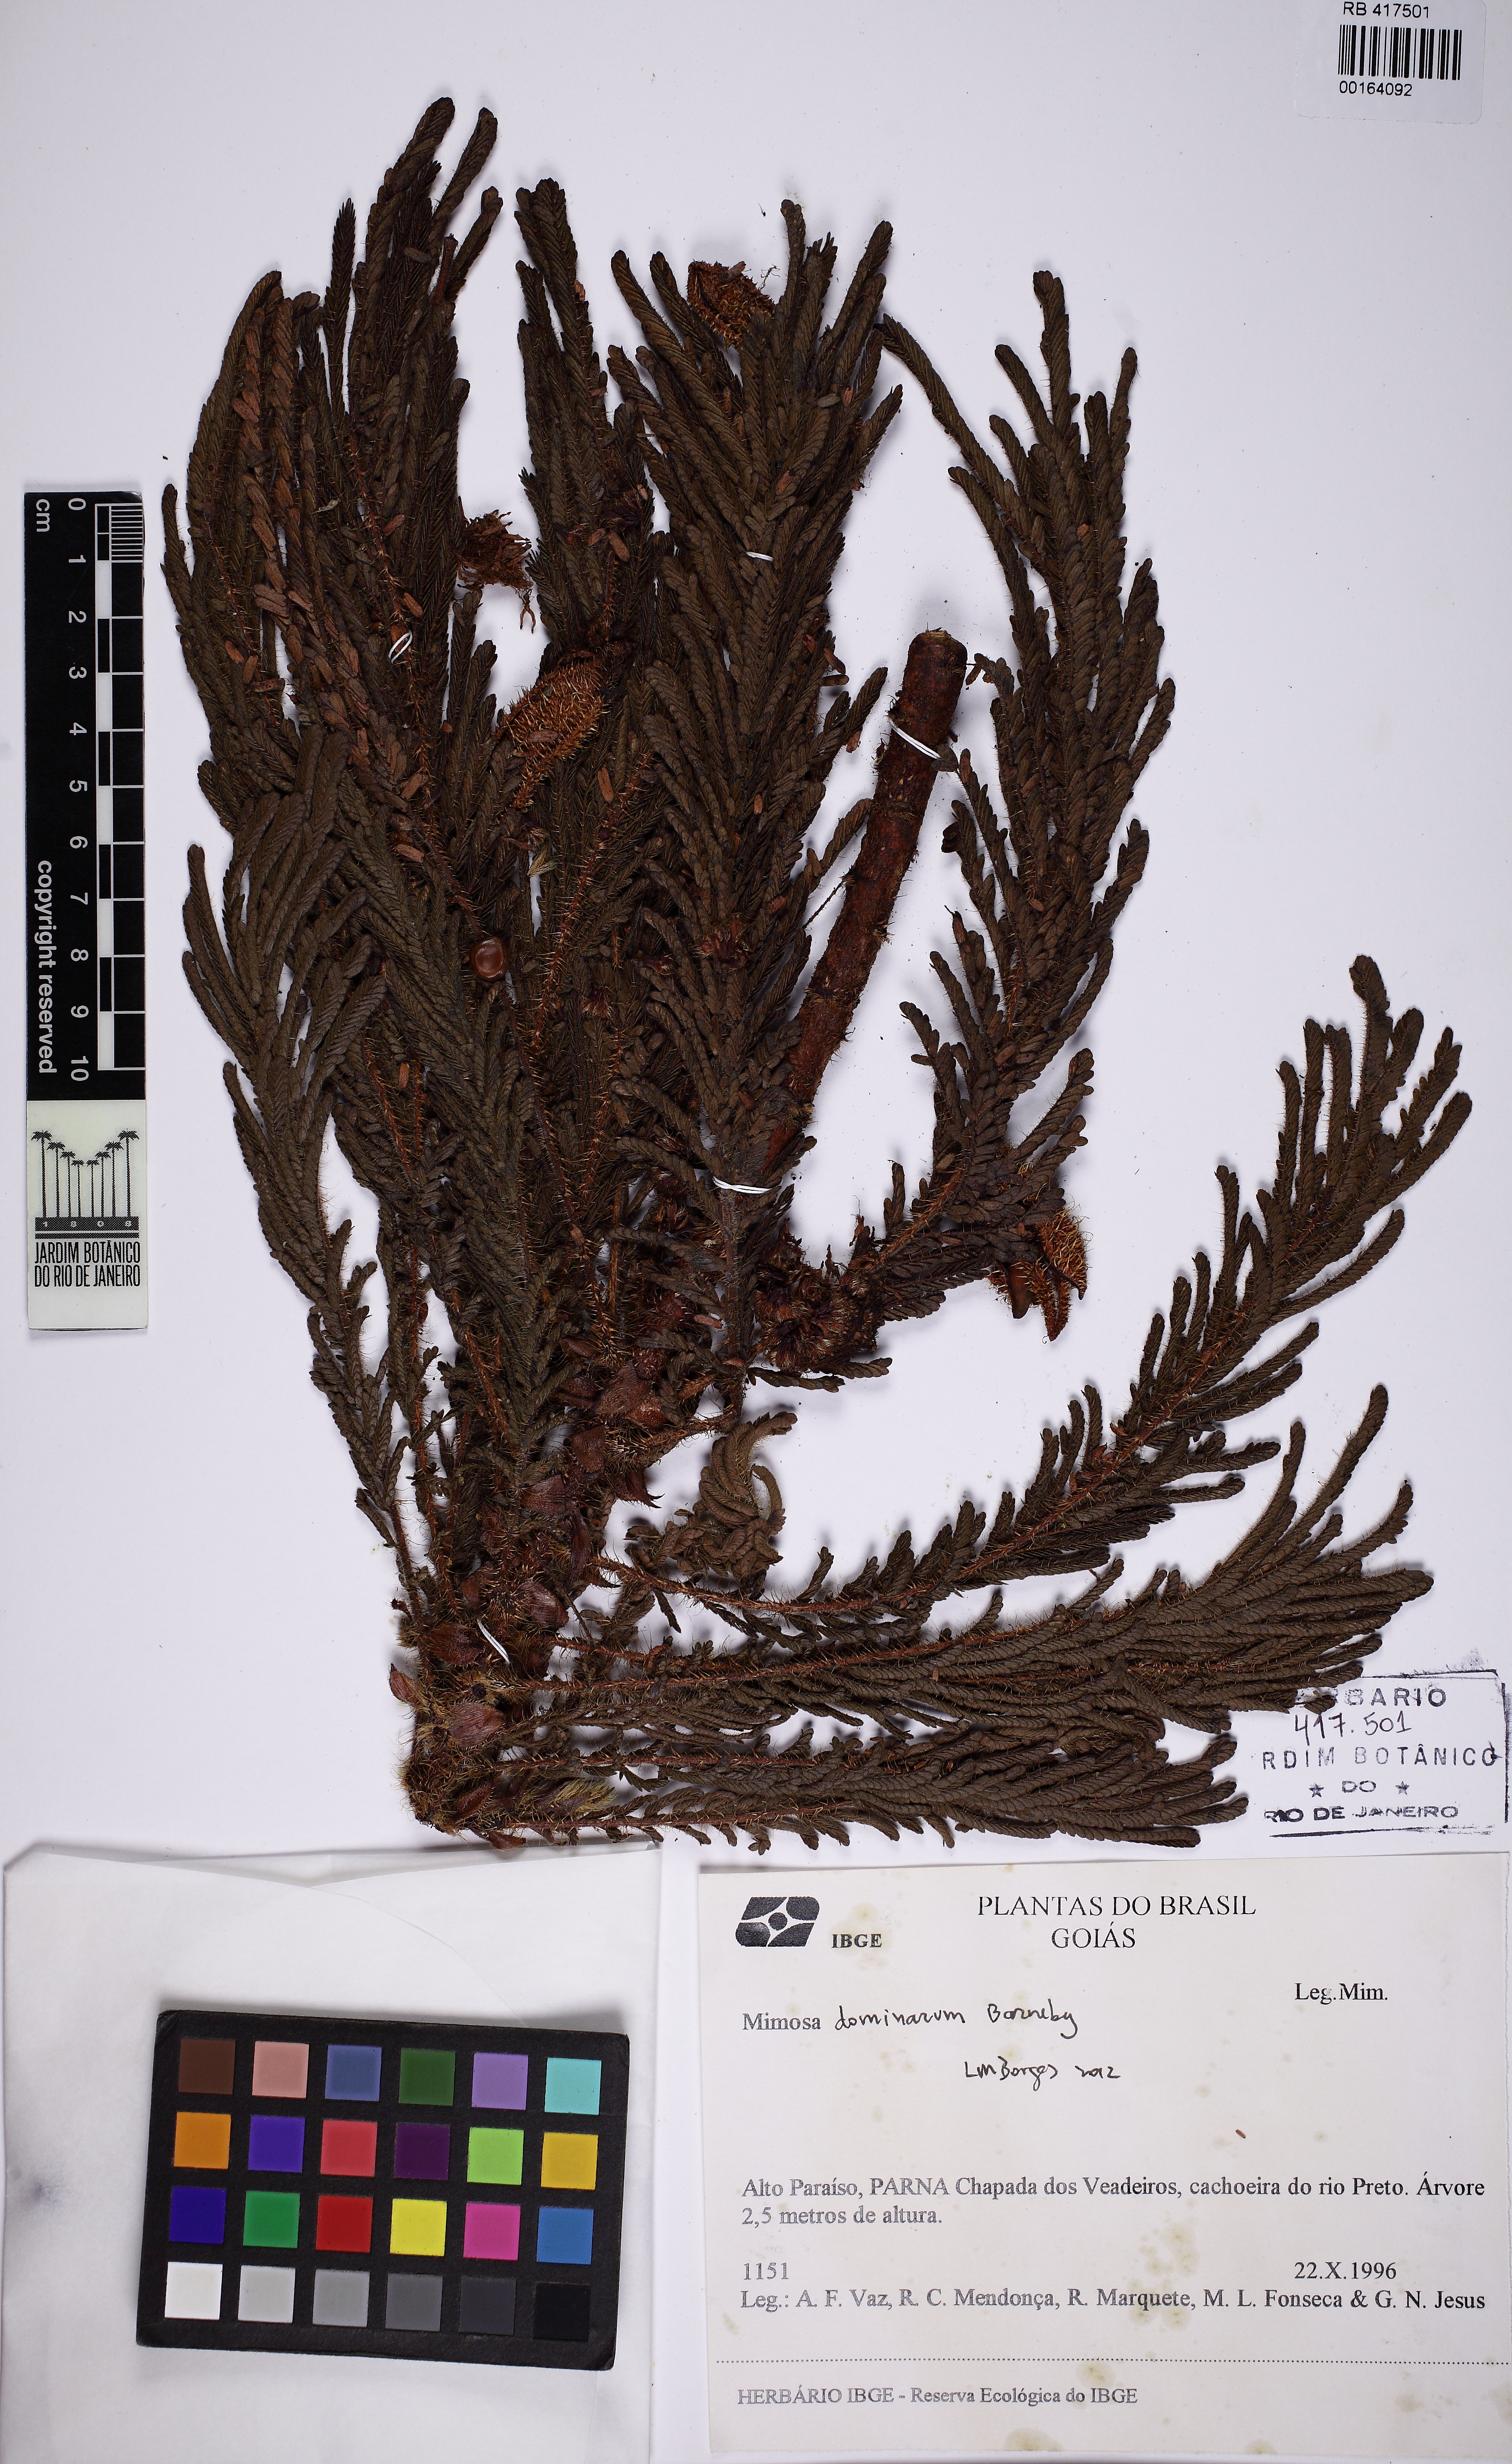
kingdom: Plantae
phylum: Tracheophyta
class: Magnoliopsida
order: Fabales
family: Fabaceae
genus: Mimosa
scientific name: Mimosa dominarum
